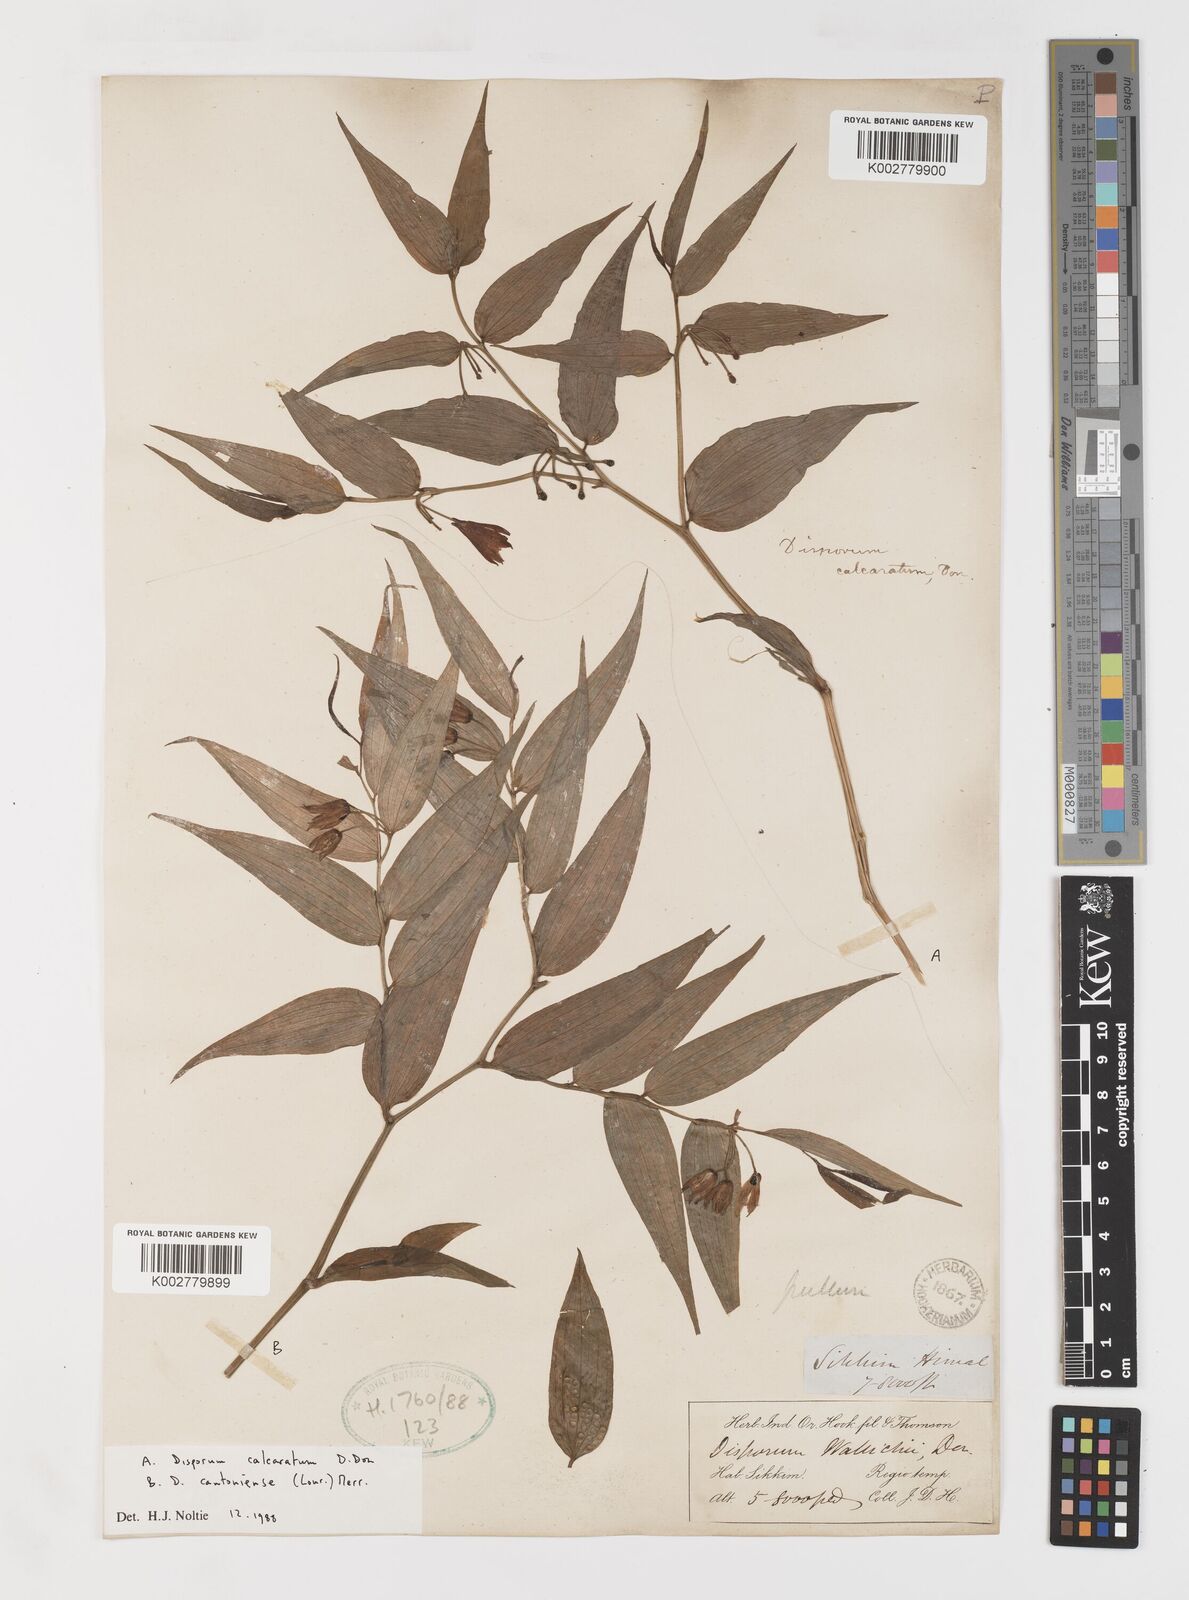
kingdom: Plantae
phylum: Tracheophyta
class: Liliopsida
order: Liliales
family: Colchicaceae
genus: Disporum
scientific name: Disporum cantoniense
